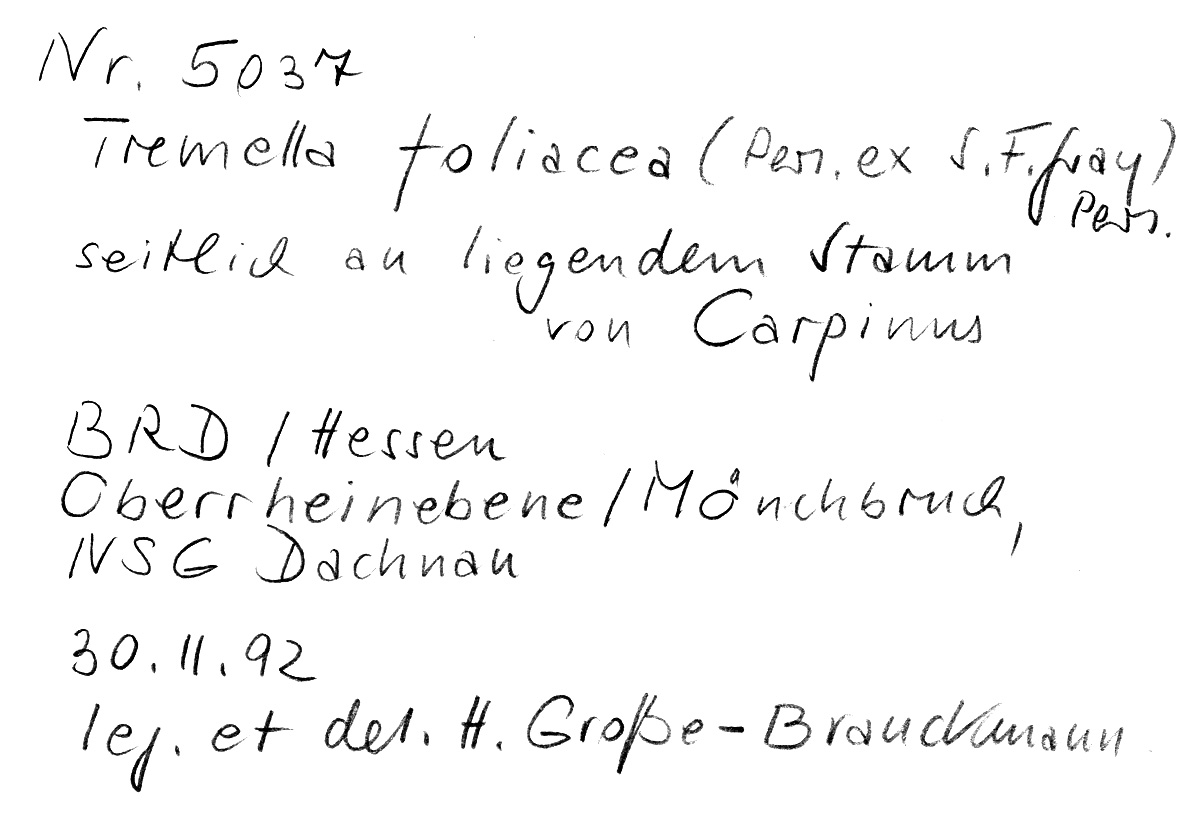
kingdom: Plantae
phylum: Tracheophyta
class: Magnoliopsida
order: Fagales
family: Betulaceae
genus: Carpinus
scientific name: Carpinus
